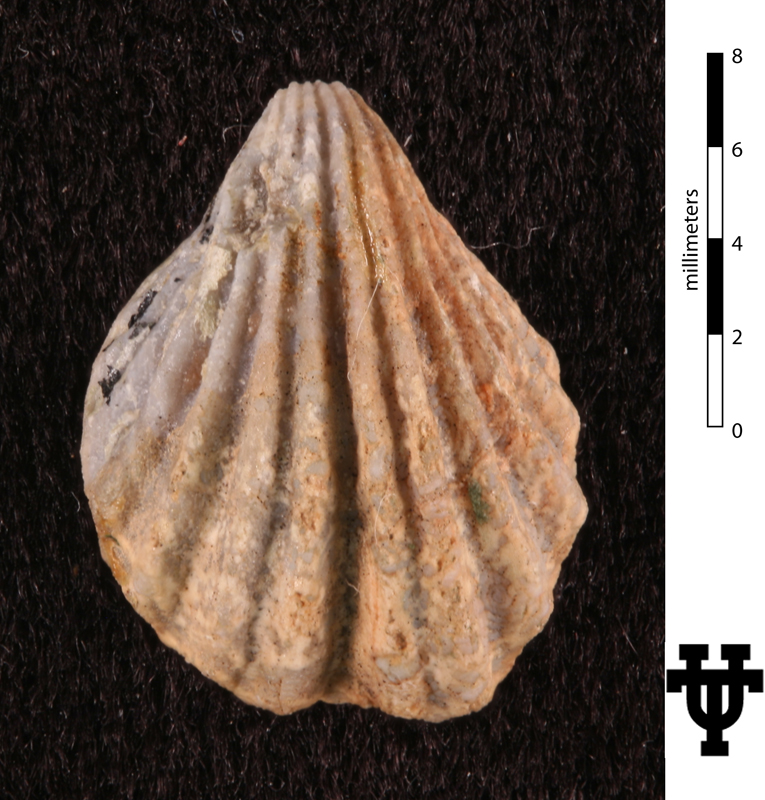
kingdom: Animalia
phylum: Brachiopoda
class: Rhynchonellata
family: Retziellidae
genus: Hustedia
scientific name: Hustedia huecoensis
